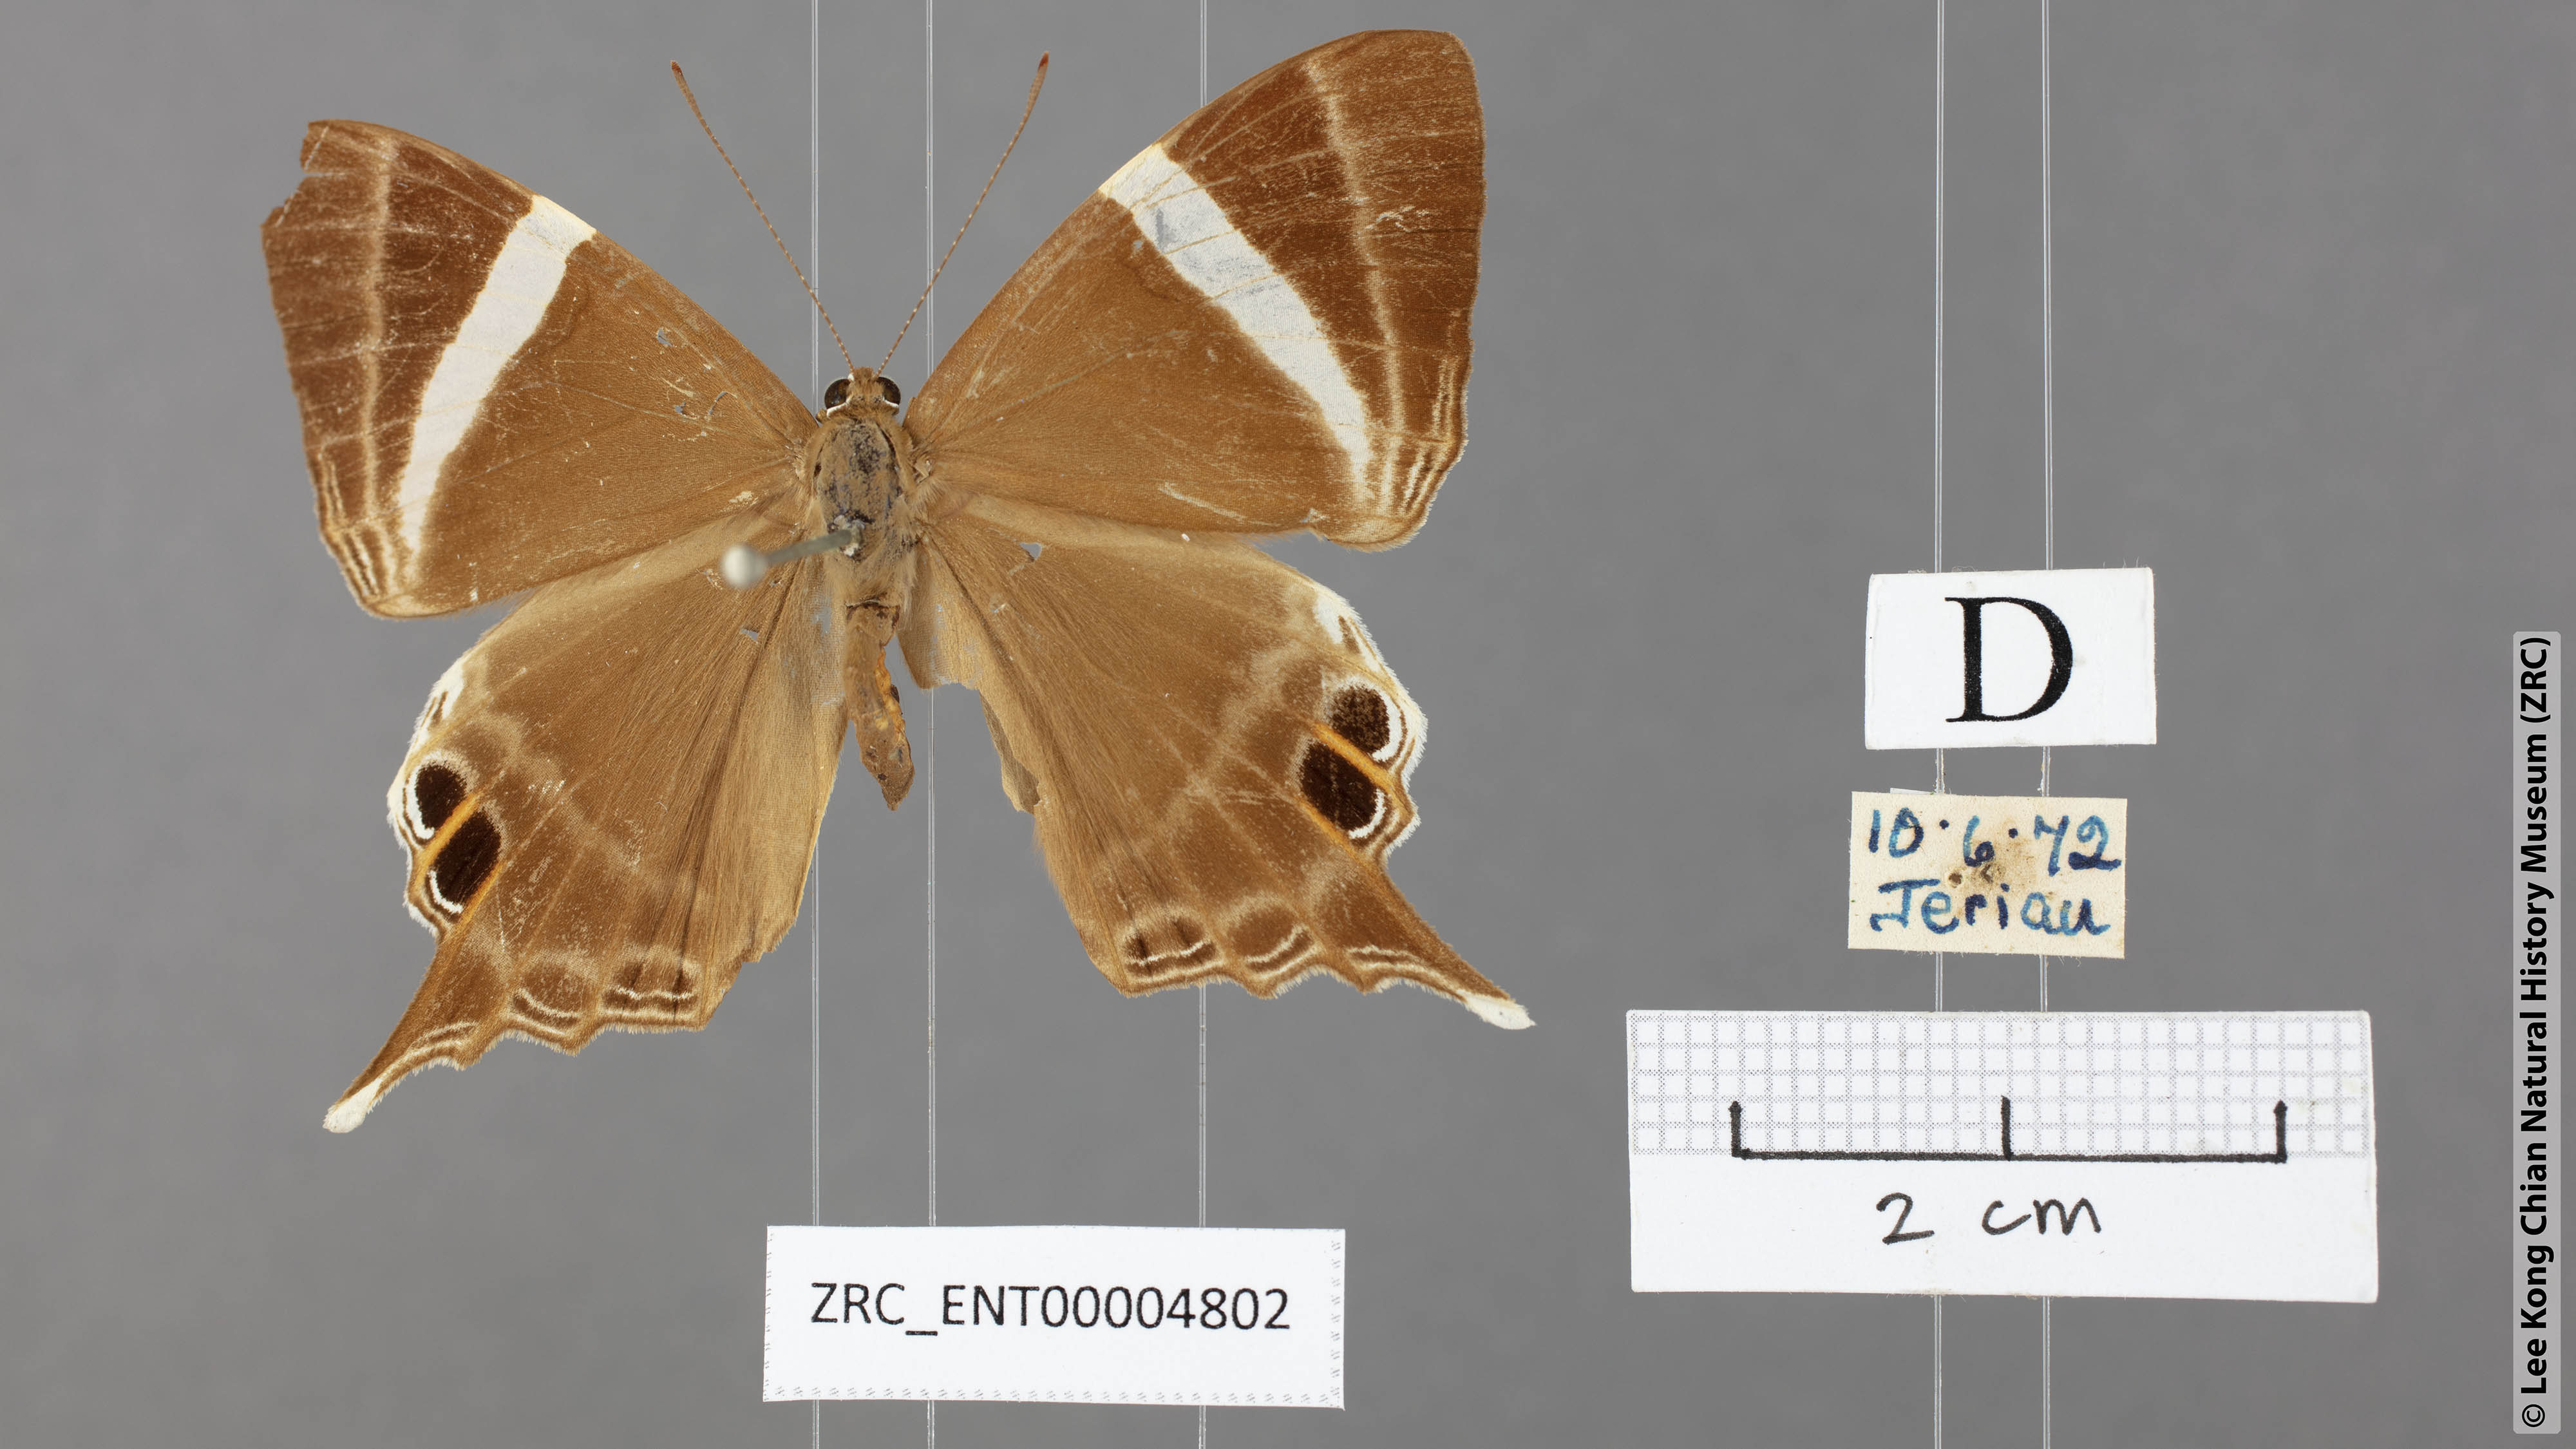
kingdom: Animalia
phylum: Arthropoda
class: Insecta
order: Lepidoptera
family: Riodinidae
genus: Archigenes
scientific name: Archigenes neophron
